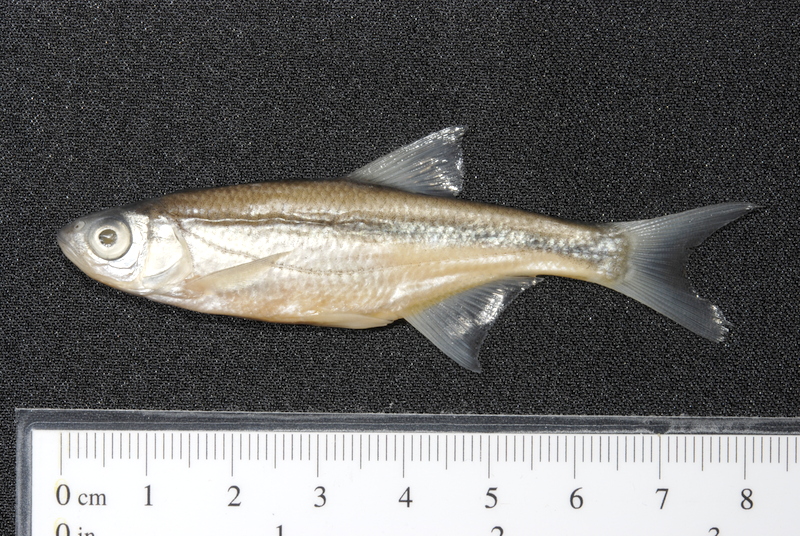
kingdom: Animalia
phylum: Chordata
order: Cypriniformes
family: Cyprinidae
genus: Alburnoides
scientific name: Alburnoides bipunctatus
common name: Spirlin
